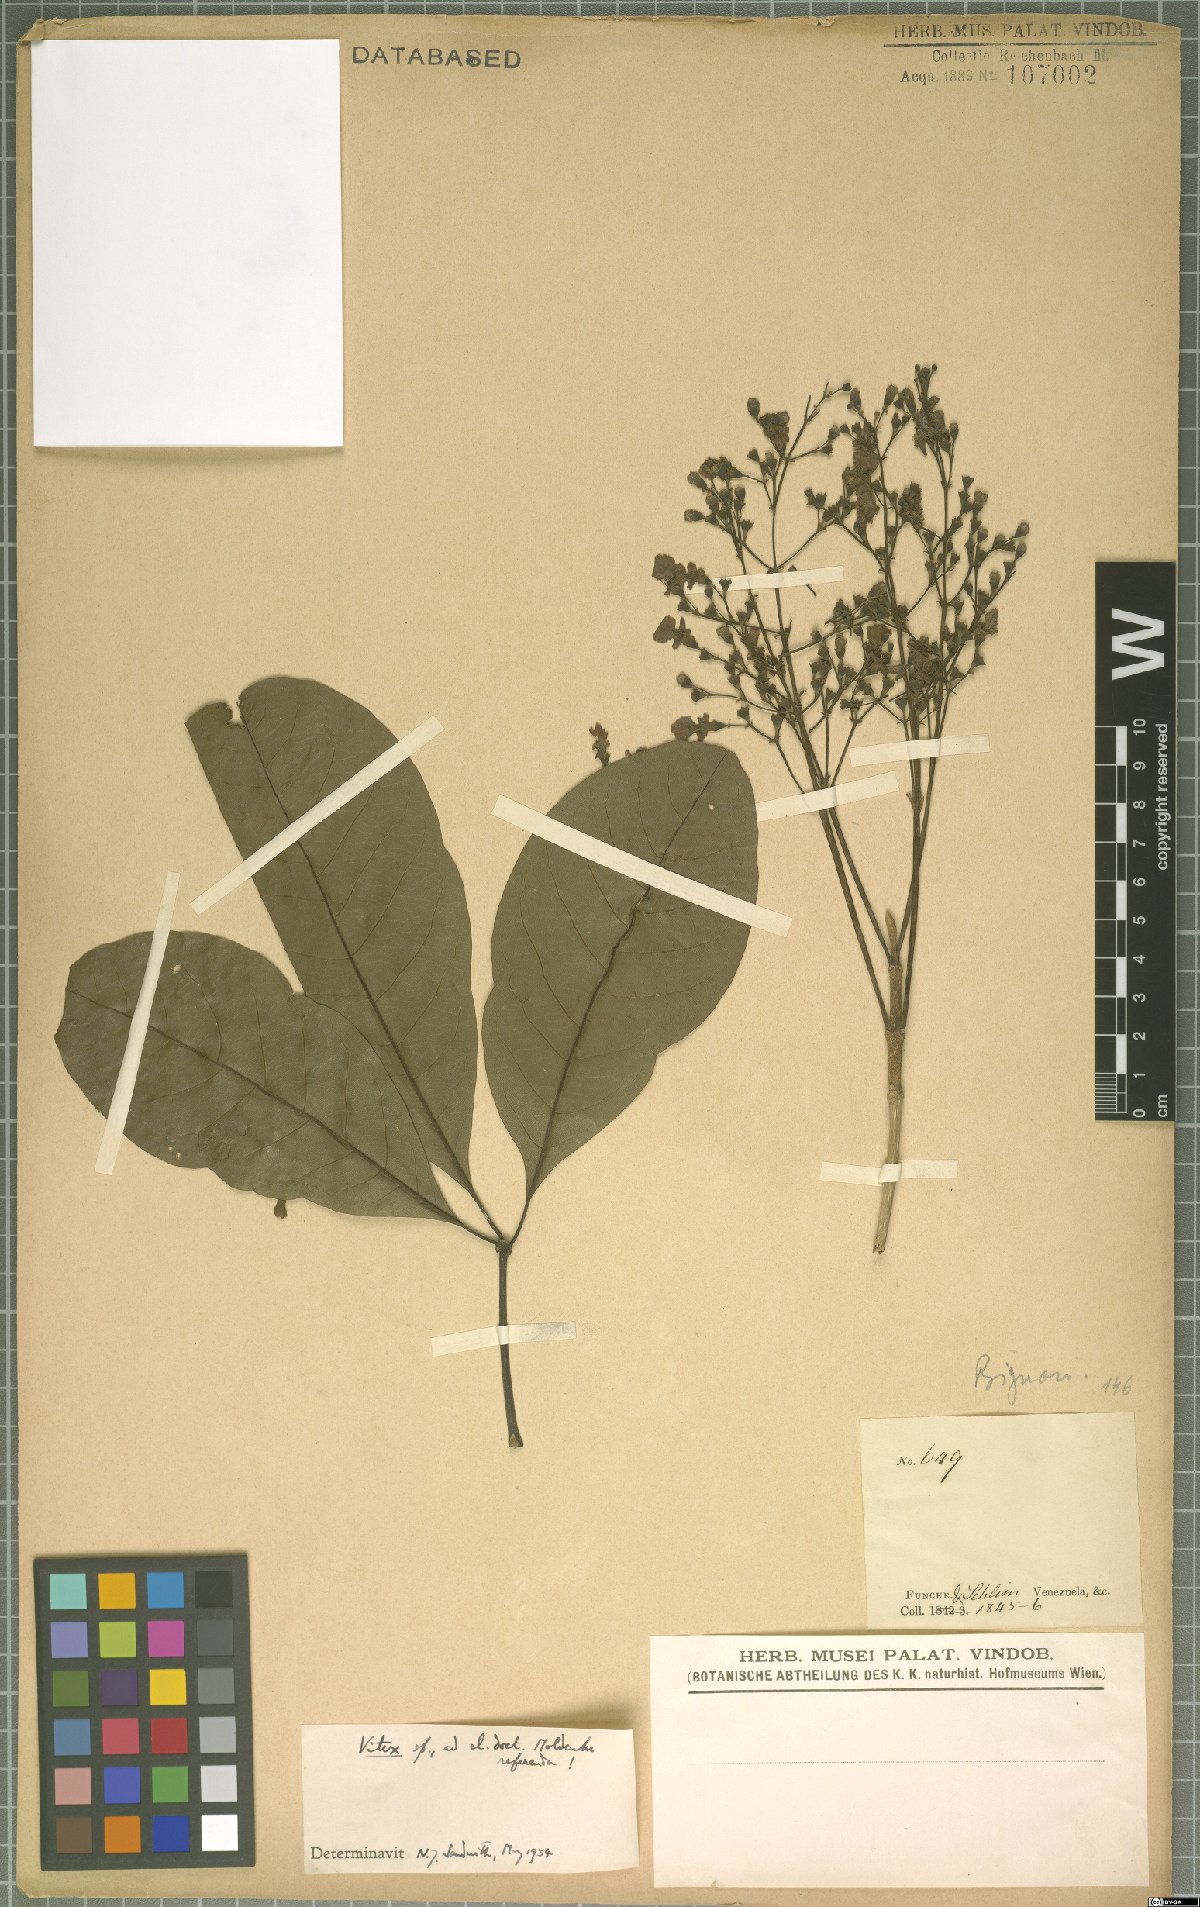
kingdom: Plantae
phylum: Tracheophyta
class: Magnoliopsida
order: Lamiales
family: Lamiaceae
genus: Vitex
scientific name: Vitex
